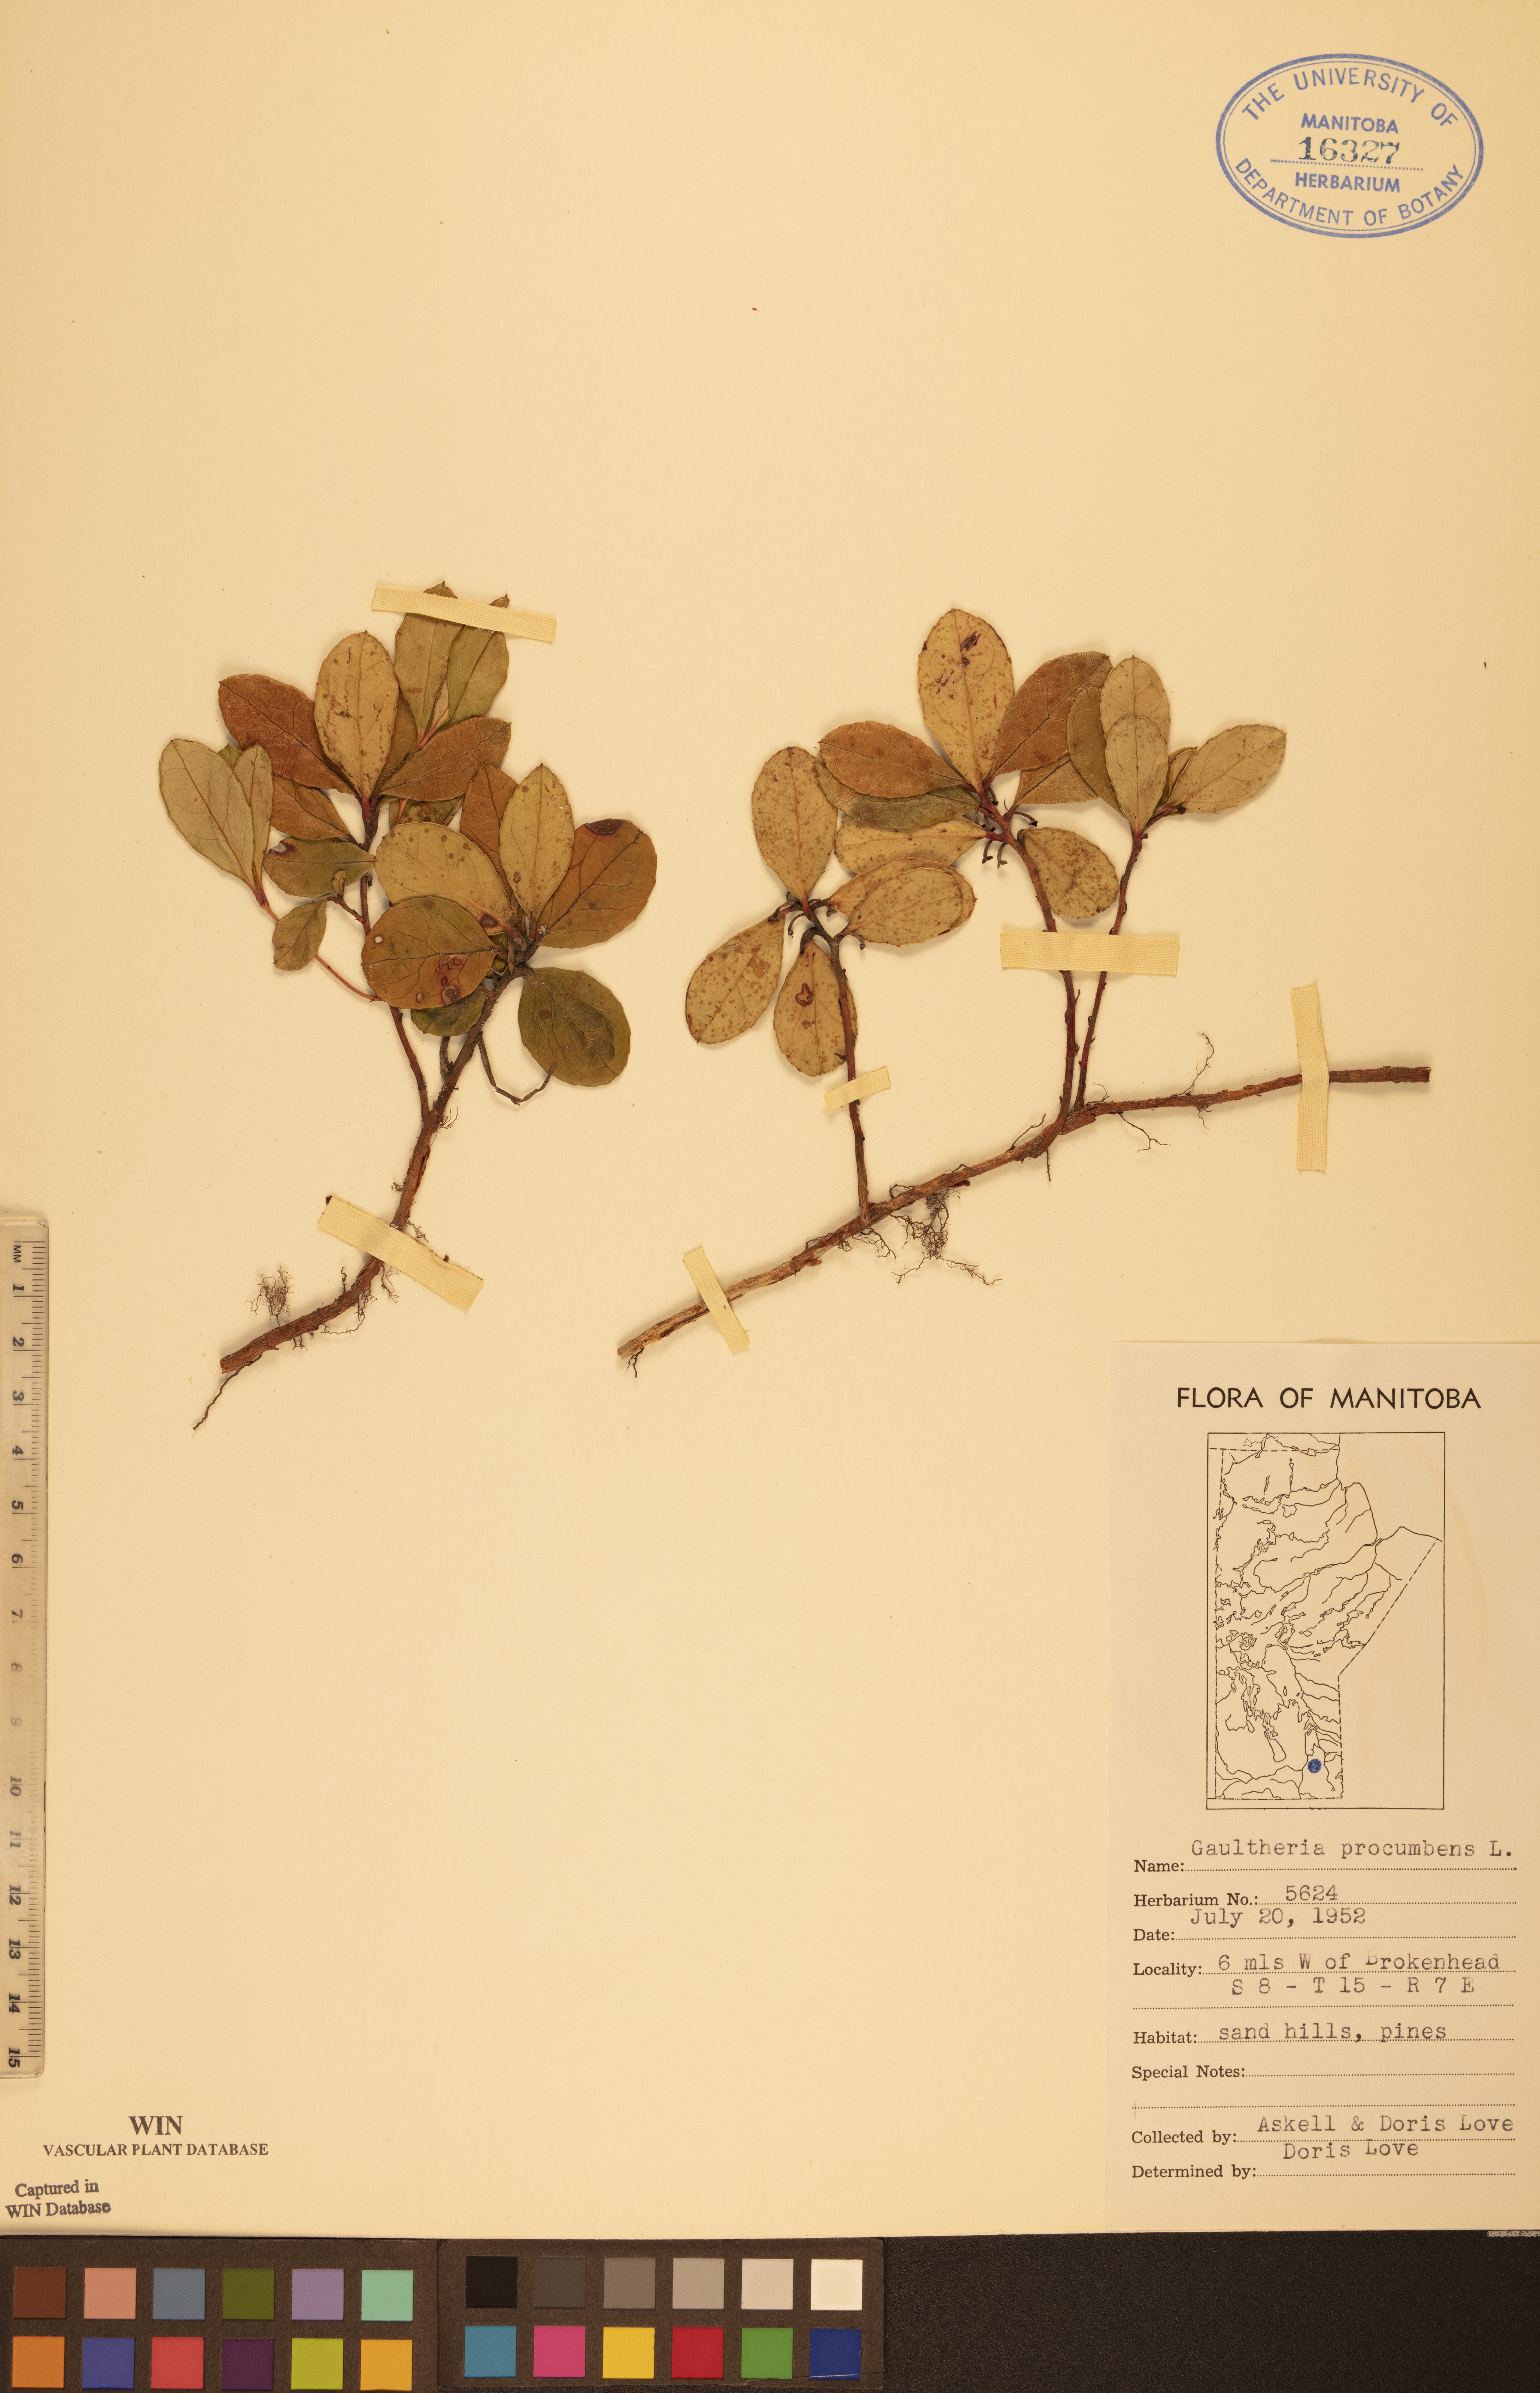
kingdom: Plantae
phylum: Tracheophyta
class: Magnoliopsida
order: Ericales
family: Ericaceae
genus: Gaultheria
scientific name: Gaultheria procumbens
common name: Checkerberry
